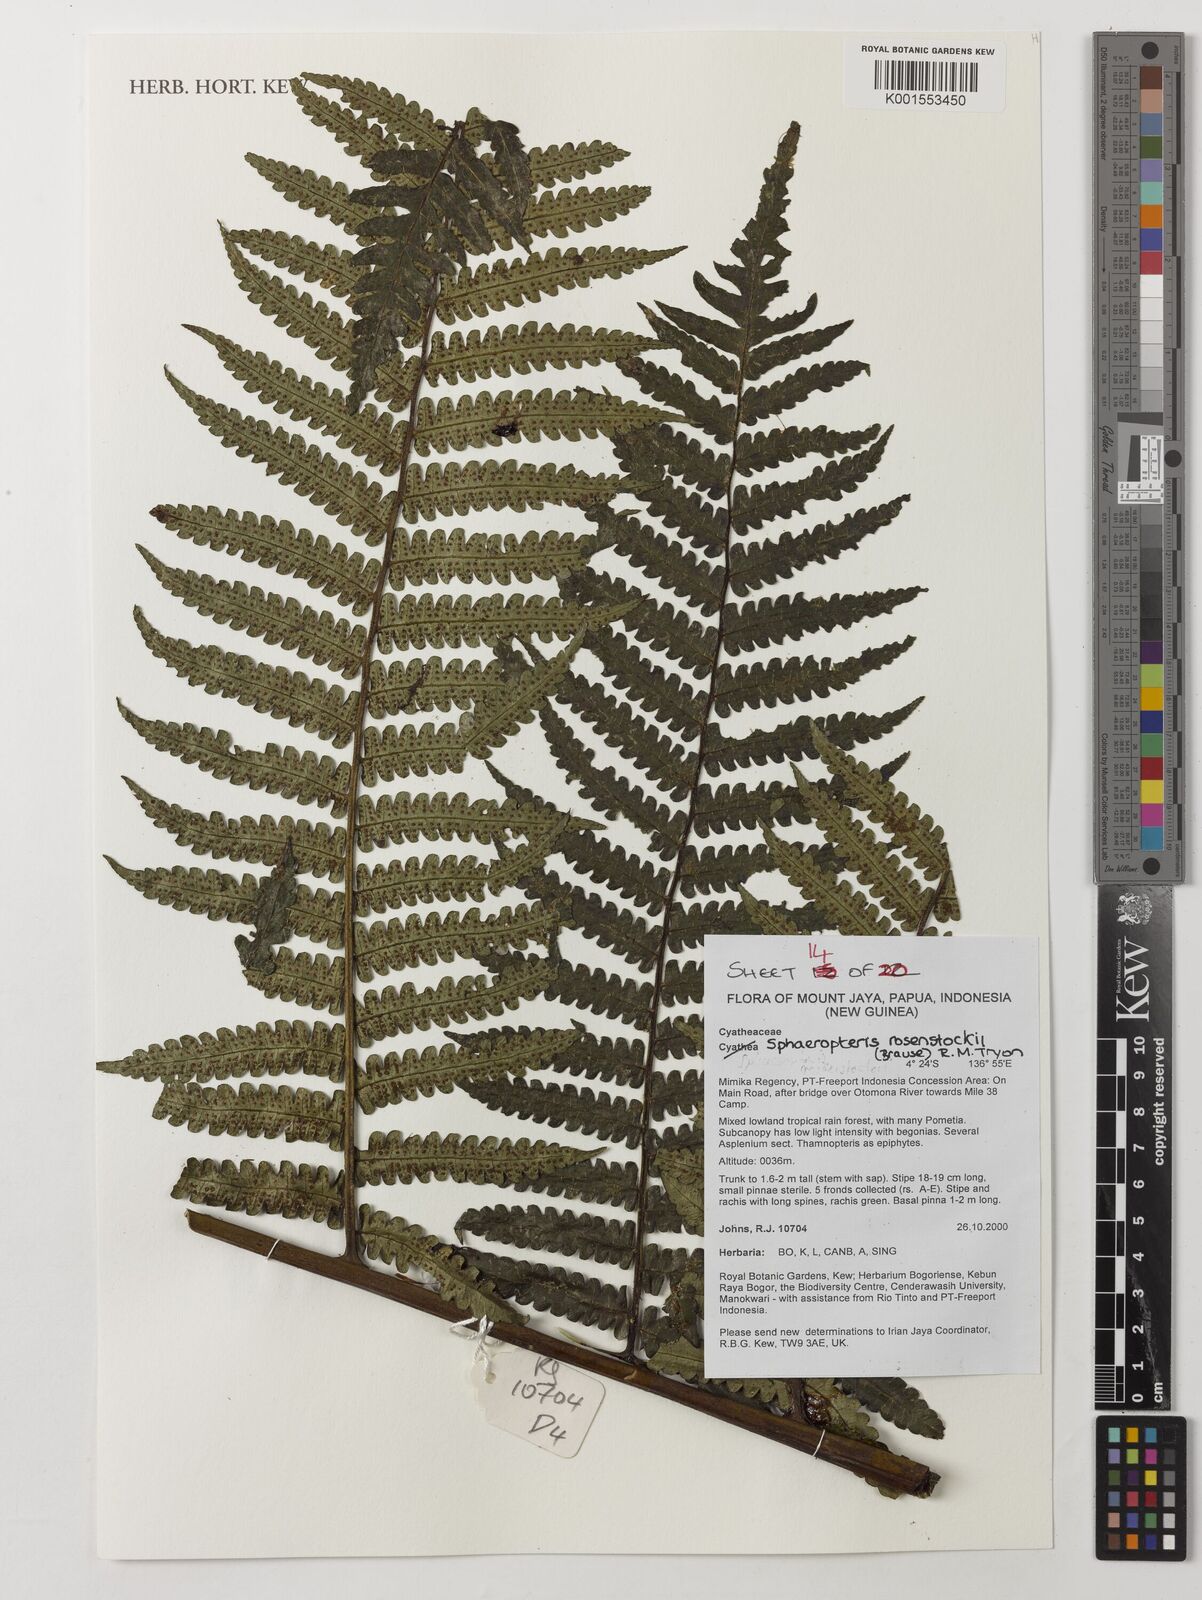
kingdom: Plantae
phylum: Tracheophyta
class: Polypodiopsida
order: Cyatheales
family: Cyatheaceae
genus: Sphaeropteris
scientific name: Sphaeropteris rosenstockii
